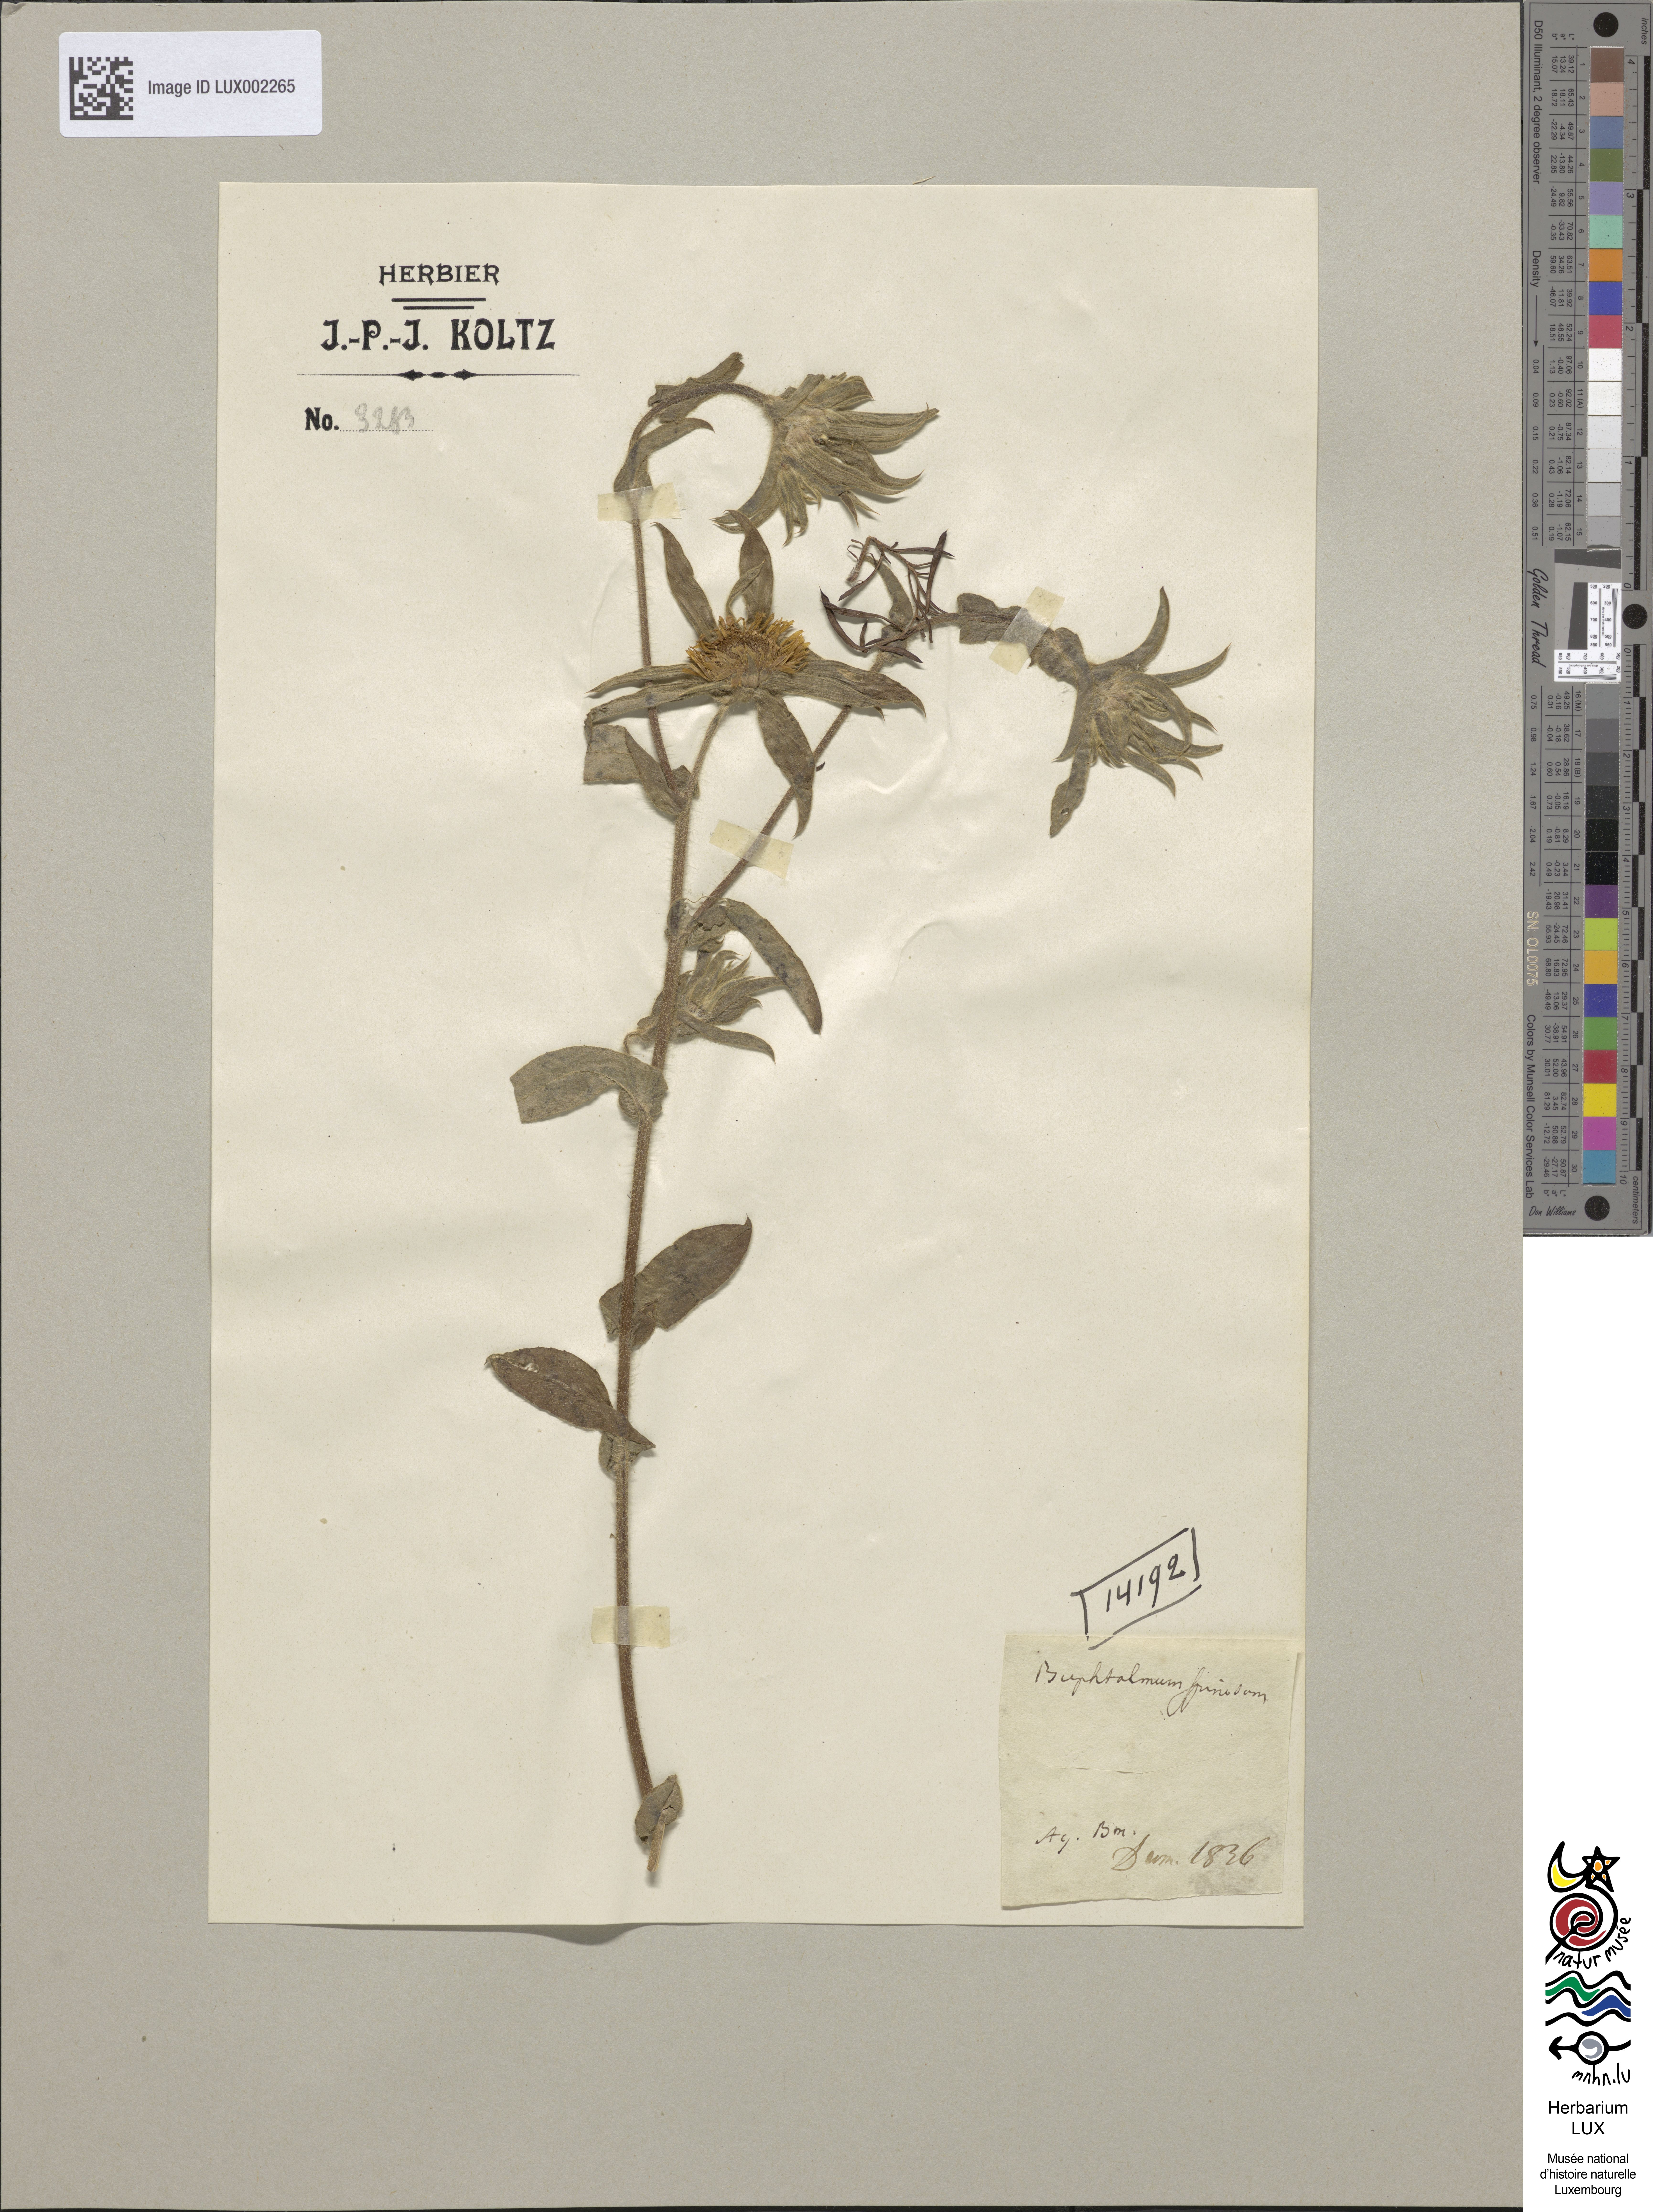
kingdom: Plantae
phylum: Tracheophyta
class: Magnoliopsida
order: Asterales
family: Asteraceae
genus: Pallenis
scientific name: Pallenis spinosa
